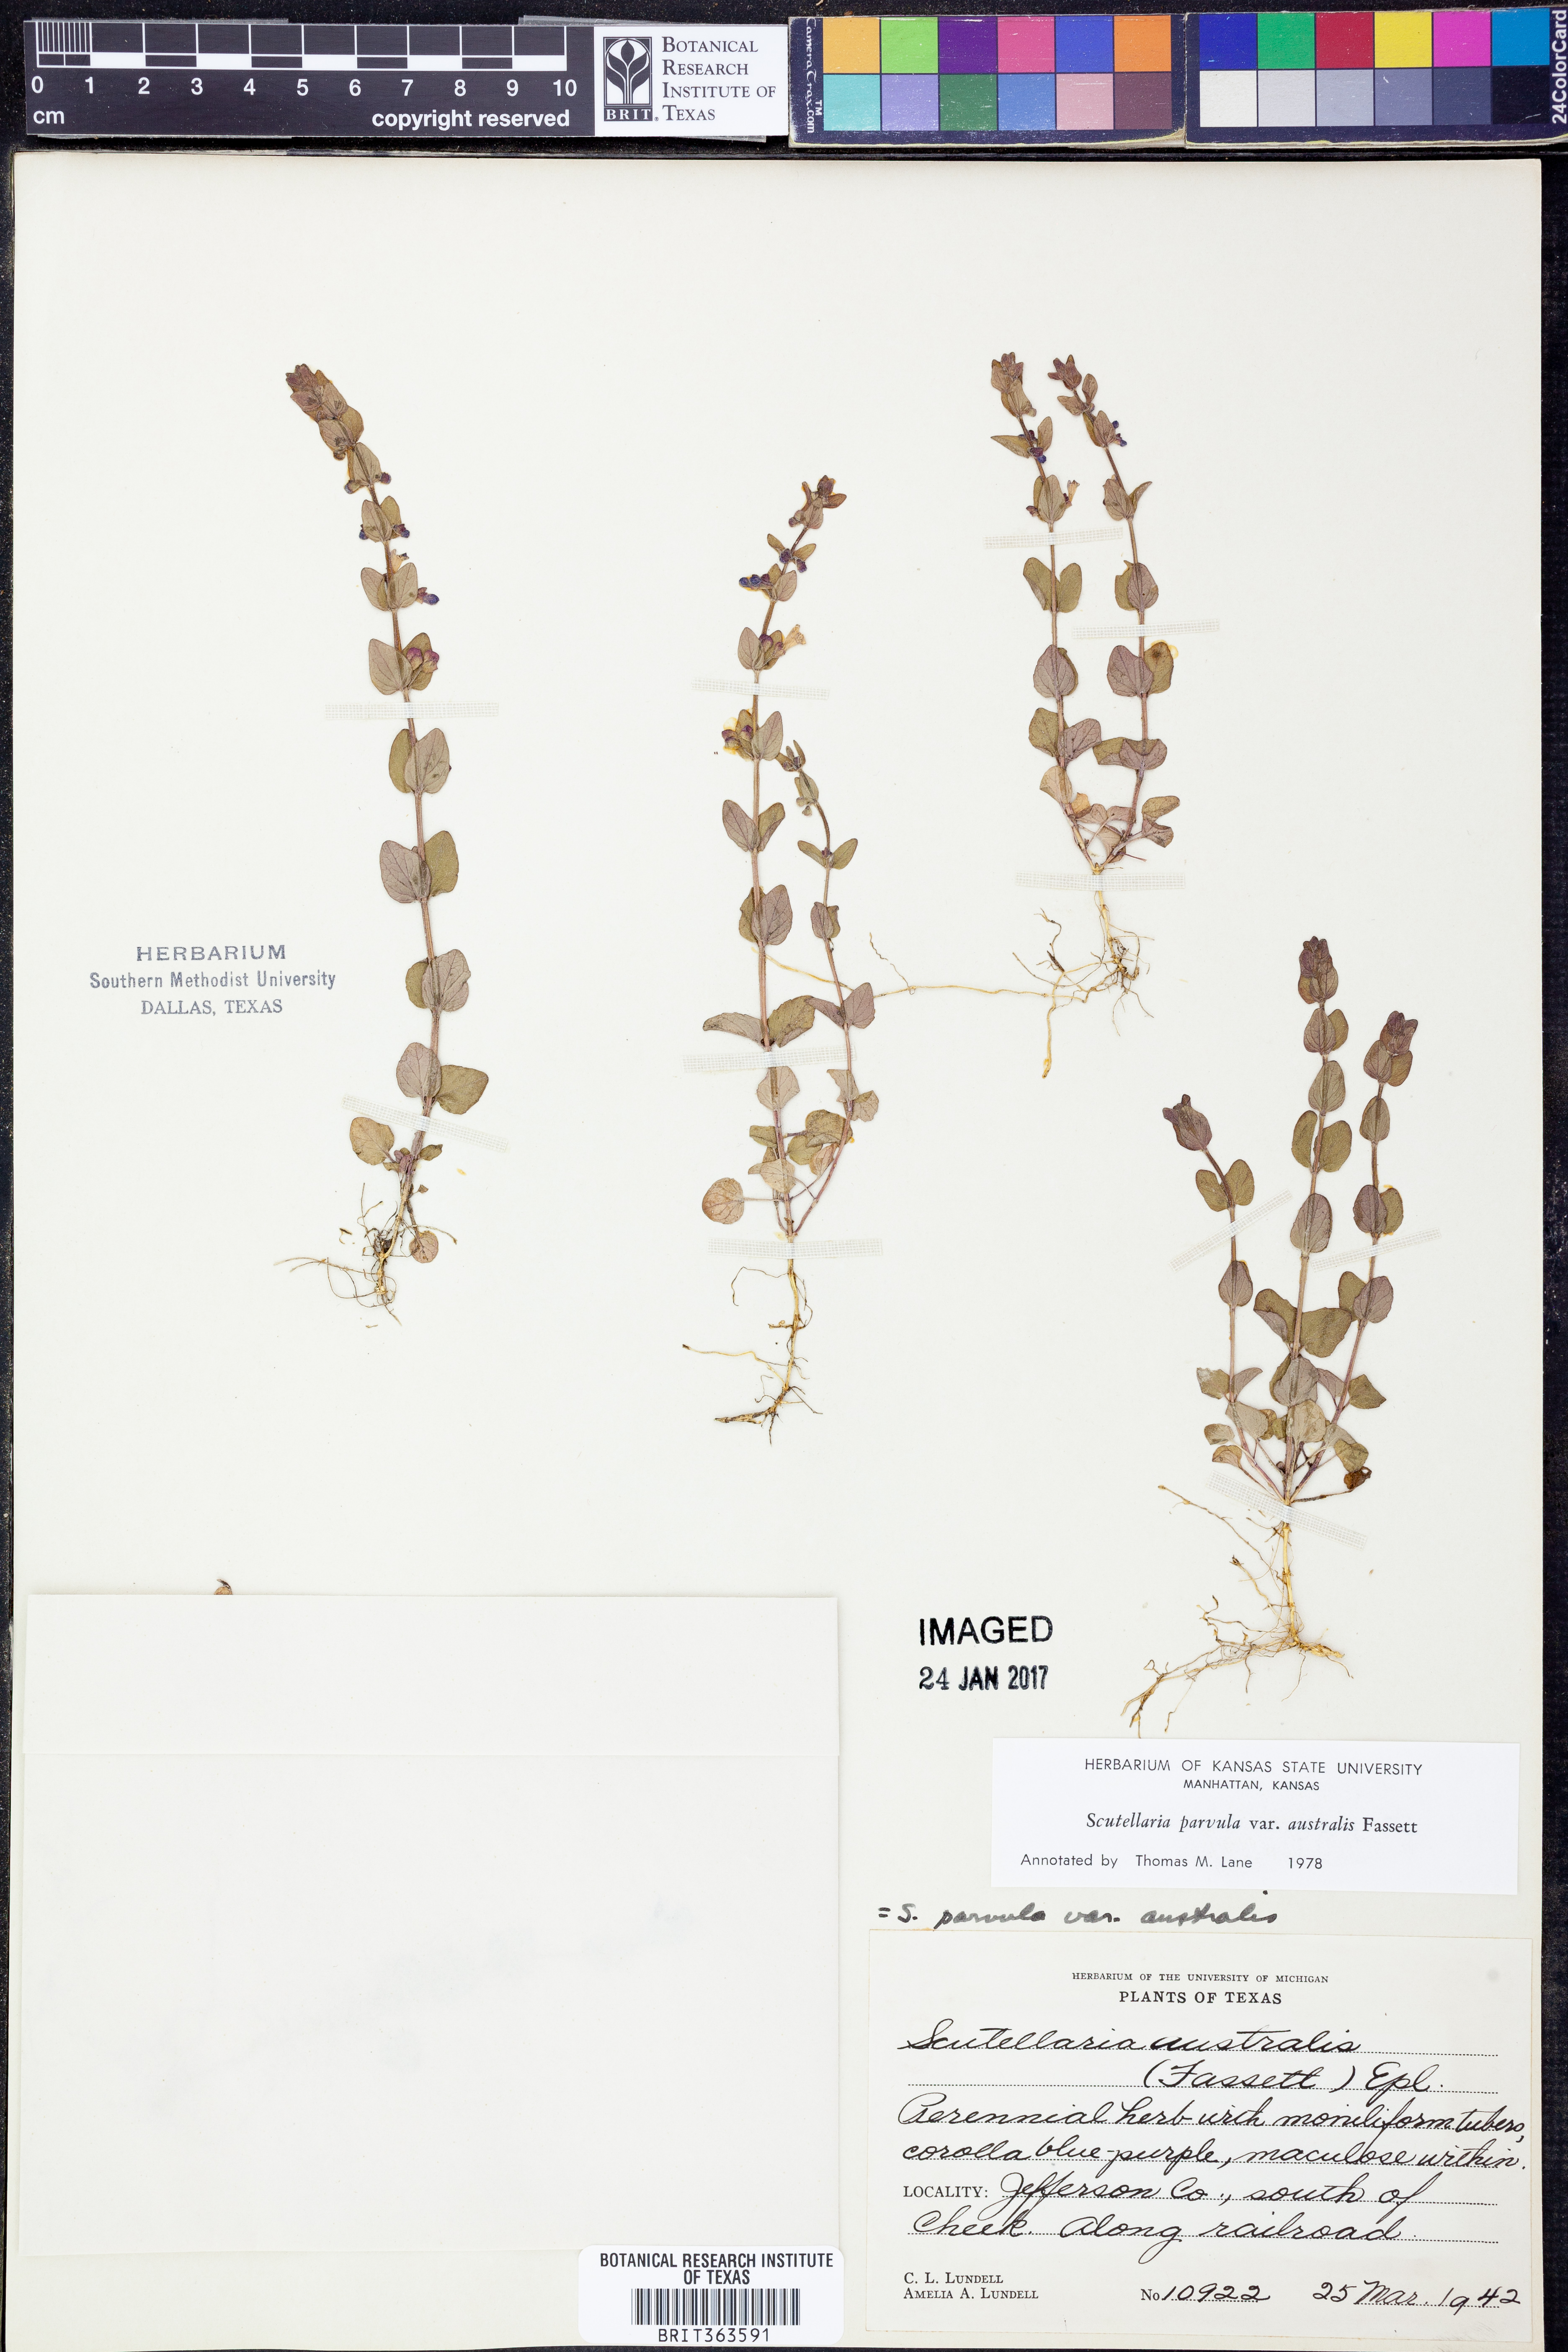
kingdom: Plantae
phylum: Tracheophyta
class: Magnoliopsida
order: Lamiales
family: Lamiaceae
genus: Scutellaria
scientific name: Scutellaria parvula
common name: Little scullcap
